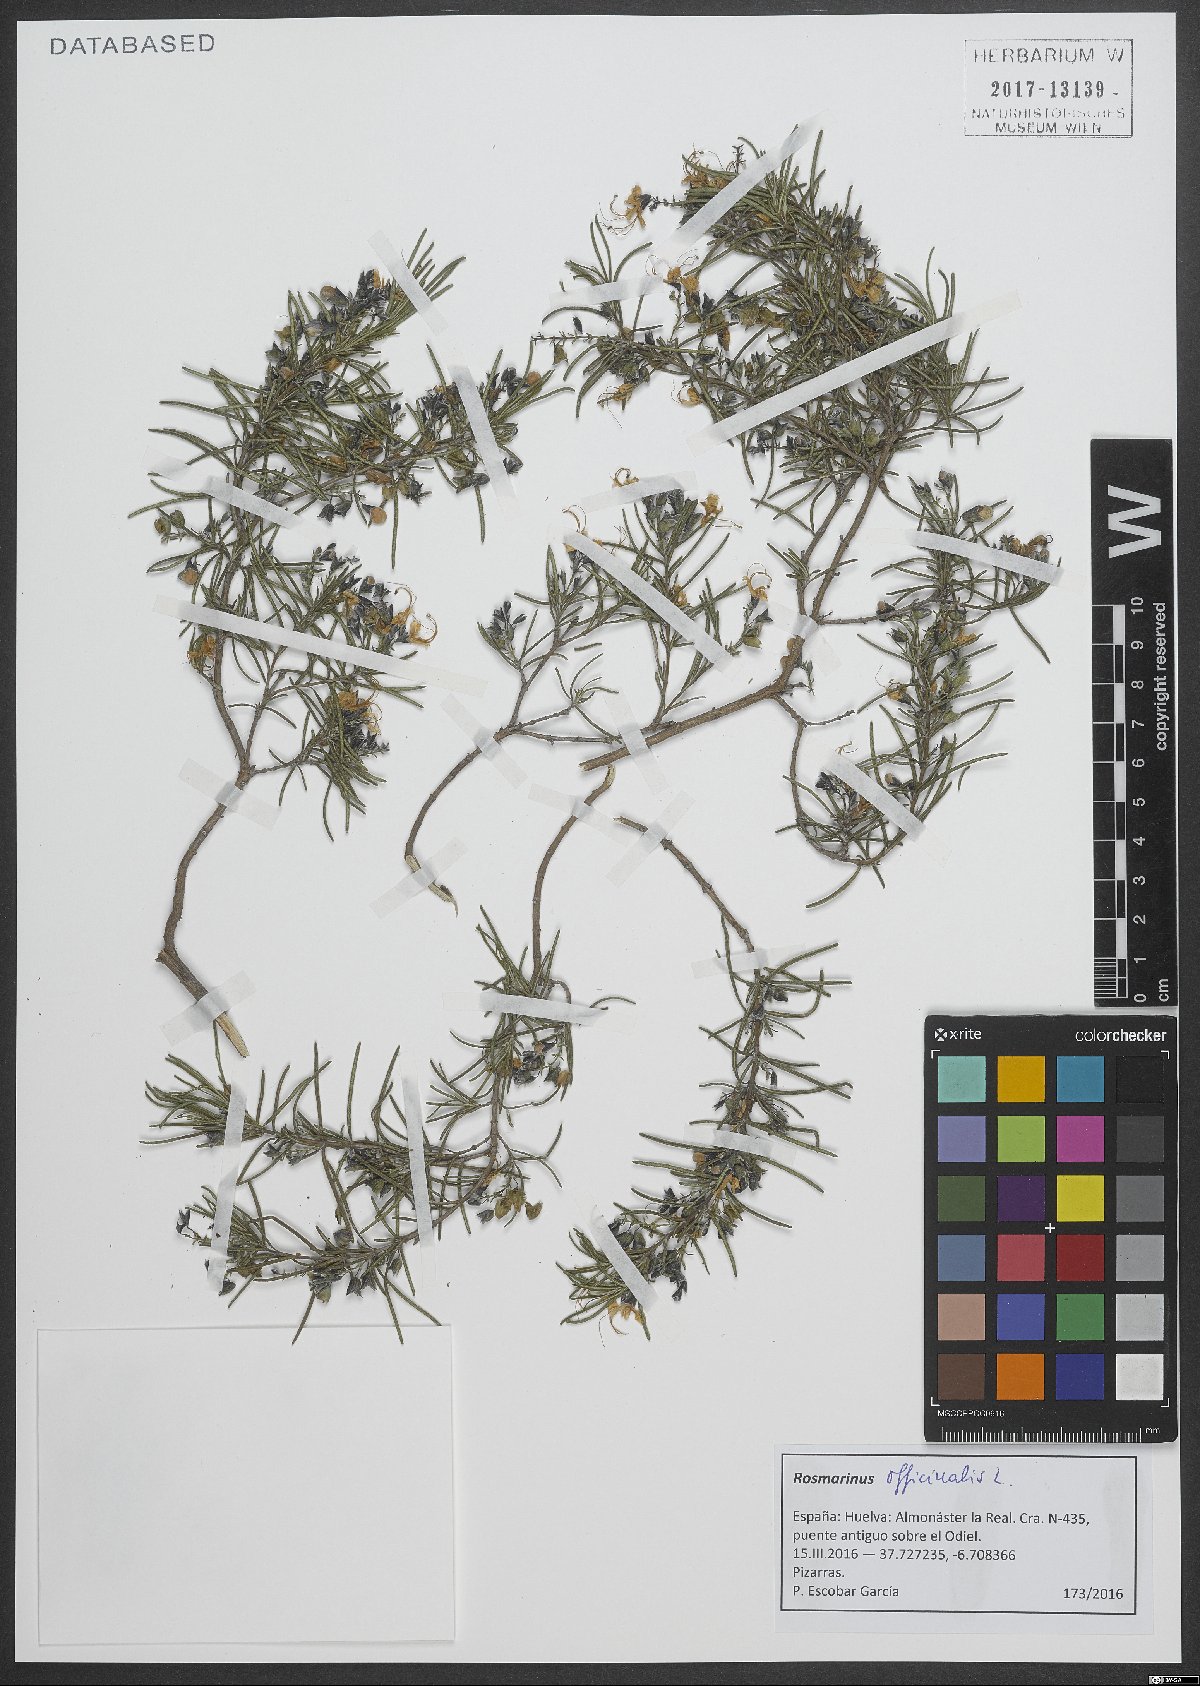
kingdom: Plantae
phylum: Tracheophyta
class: Magnoliopsida
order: Lamiales
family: Lamiaceae
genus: Salvia
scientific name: Salvia rosmarinus
